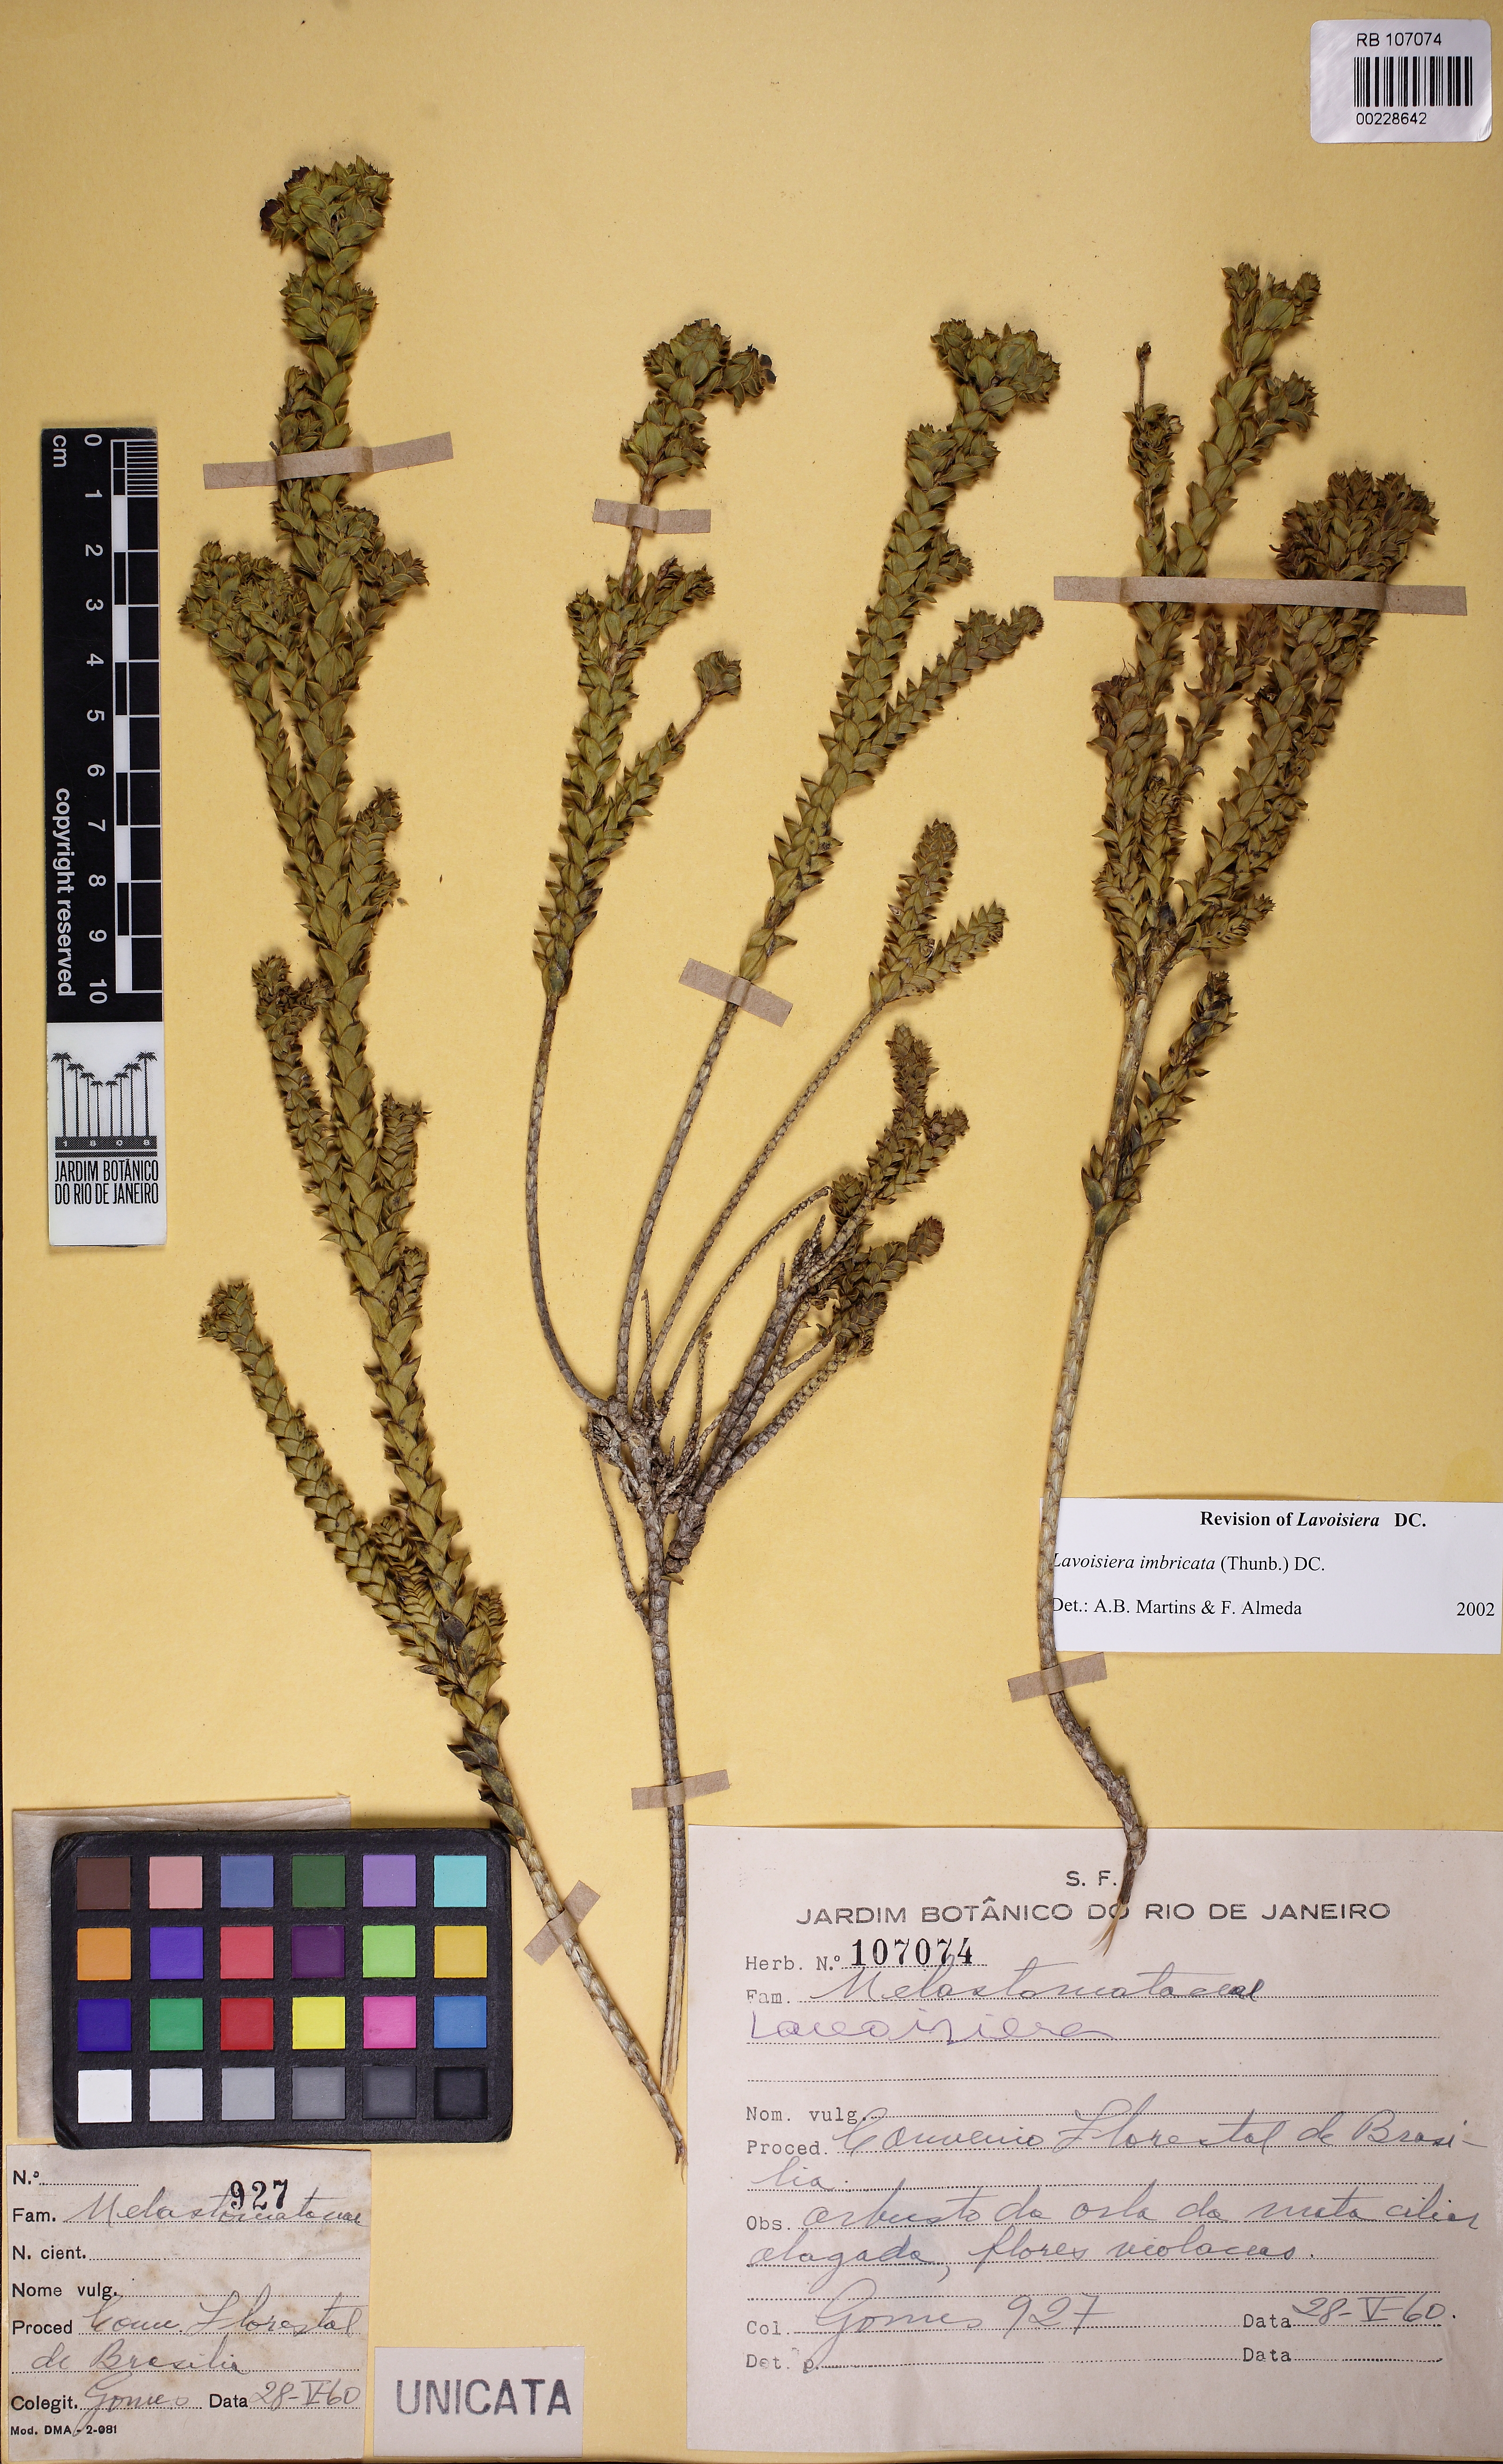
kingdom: Plantae
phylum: Tracheophyta
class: Magnoliopsida
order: Myrtales
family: Melastomataceae
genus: Microlicia
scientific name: Microlicia cataphracta
